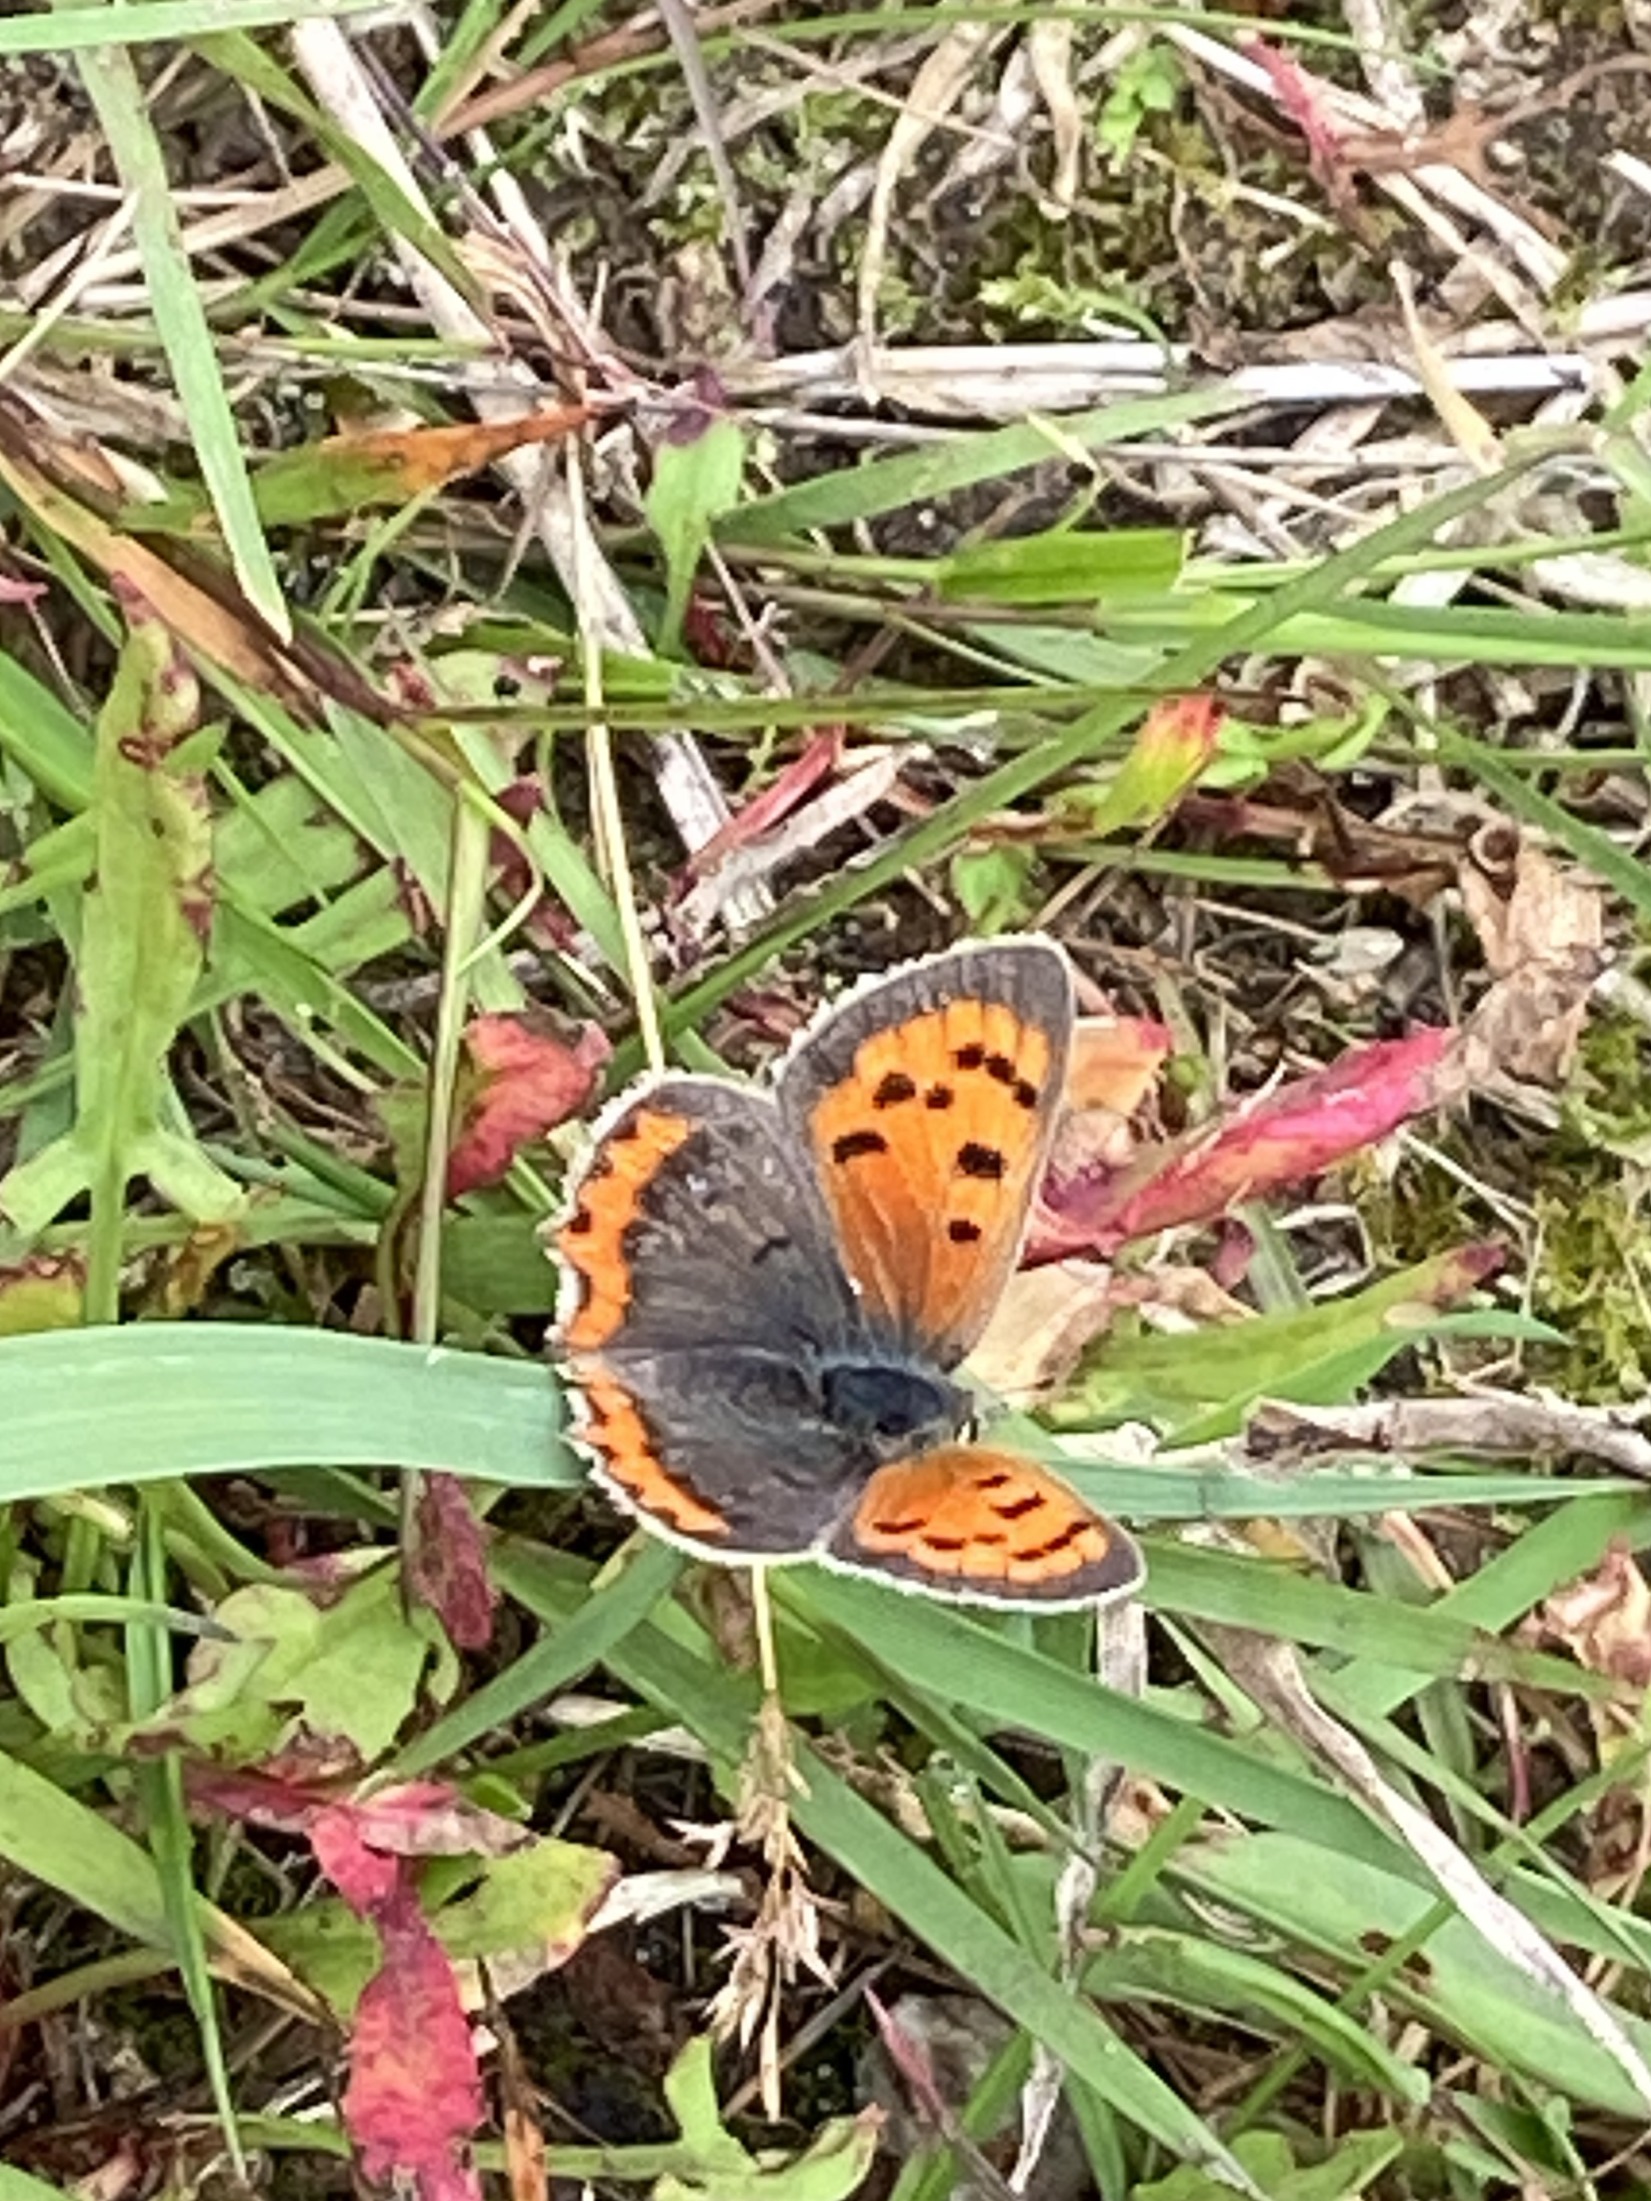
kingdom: Animalia
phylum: Arthropoda
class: Insecta
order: Lepidoptera
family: Lycaenidae
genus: Lycaena
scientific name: Lycaena phlaeas
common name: Lille ildfugl
